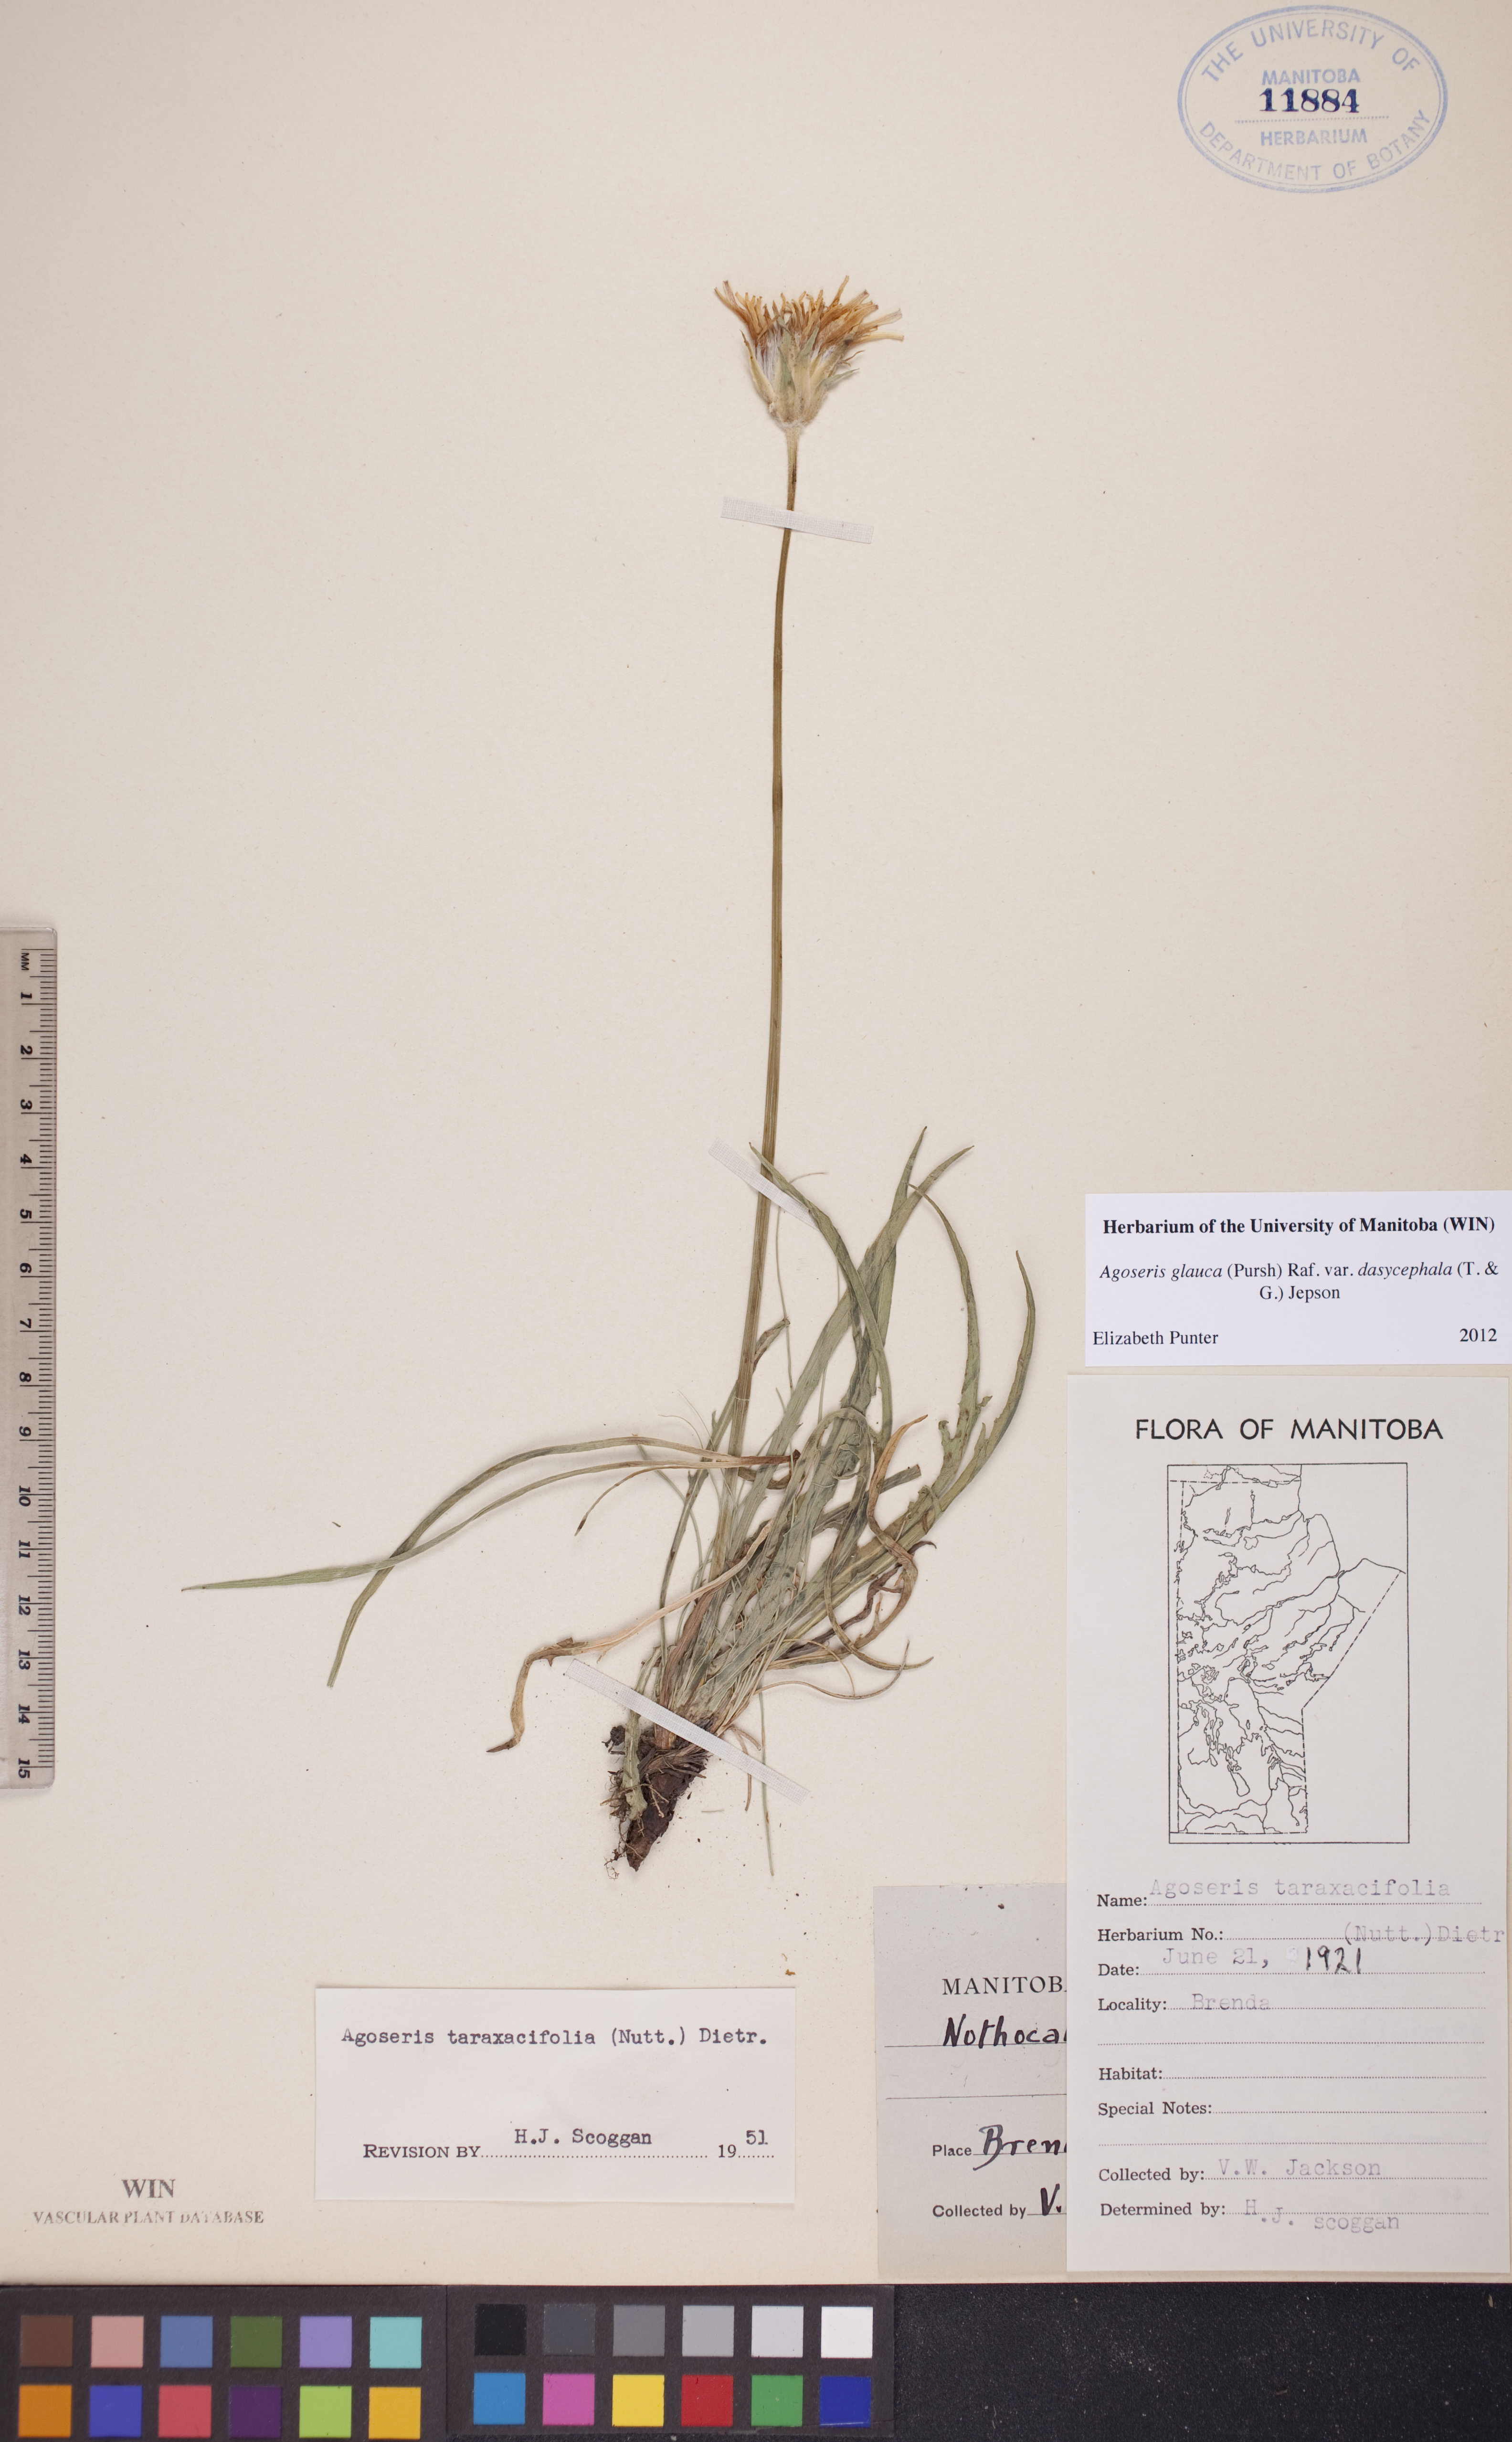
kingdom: Plantae
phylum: Tracheophyta
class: Magnoliopsida
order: Asterales
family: Asteraceae
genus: Agoseris
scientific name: Agoseris glauca
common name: Prairie agoseris
